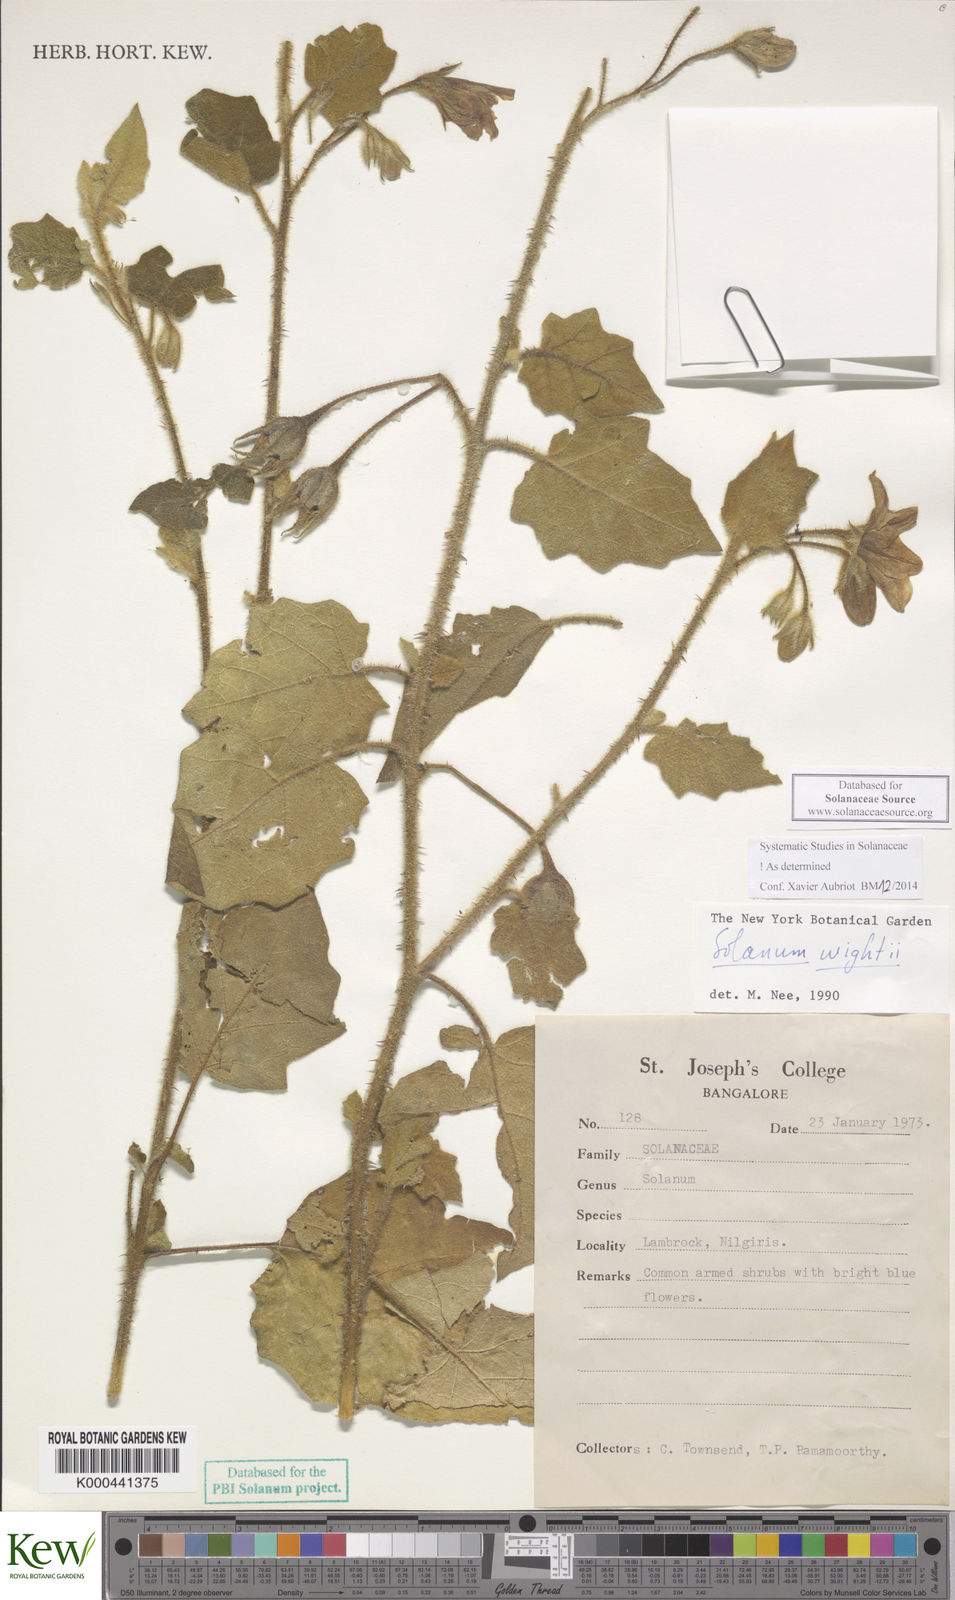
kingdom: Plantae
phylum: Tracheophyta
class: Magnoliopsida
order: Solanales
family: Solanaceae
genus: Solanum
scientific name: Solanum wightii
